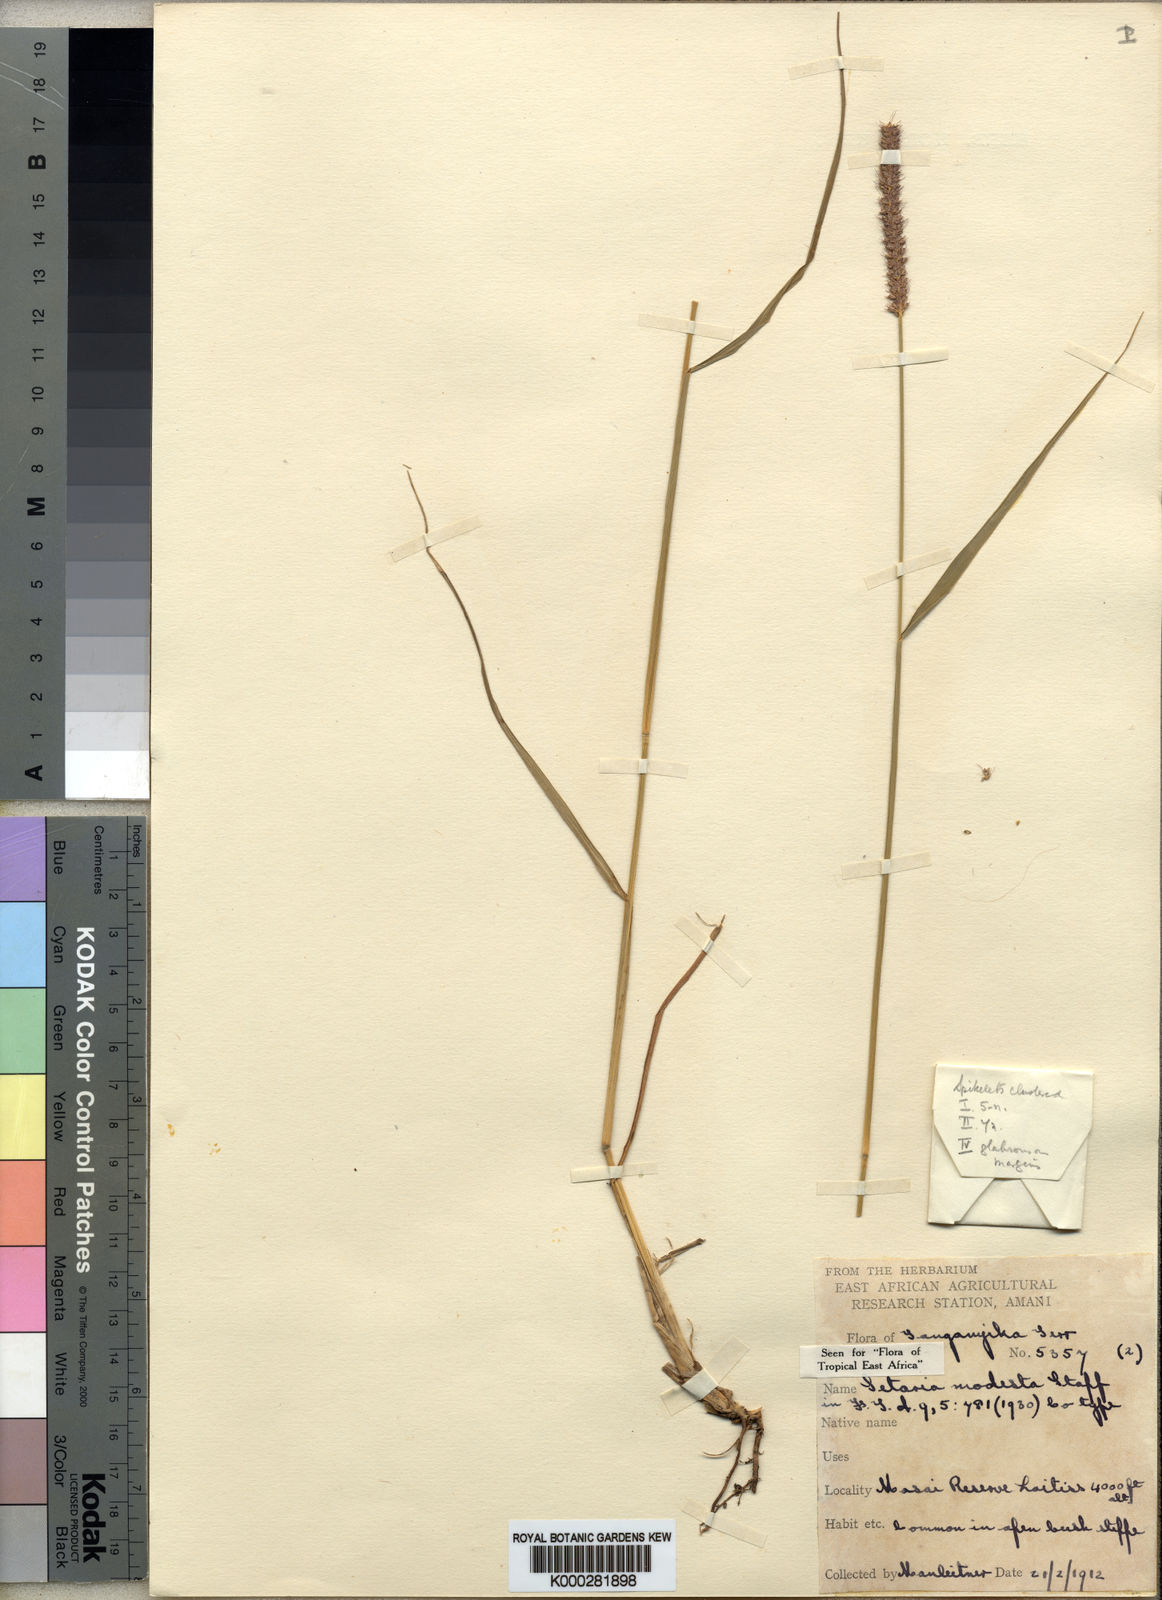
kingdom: Plantae
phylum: Tracheophyta
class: Liliopsida
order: Poales
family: Poaceae
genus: Setaria
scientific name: Setaria incrassata
